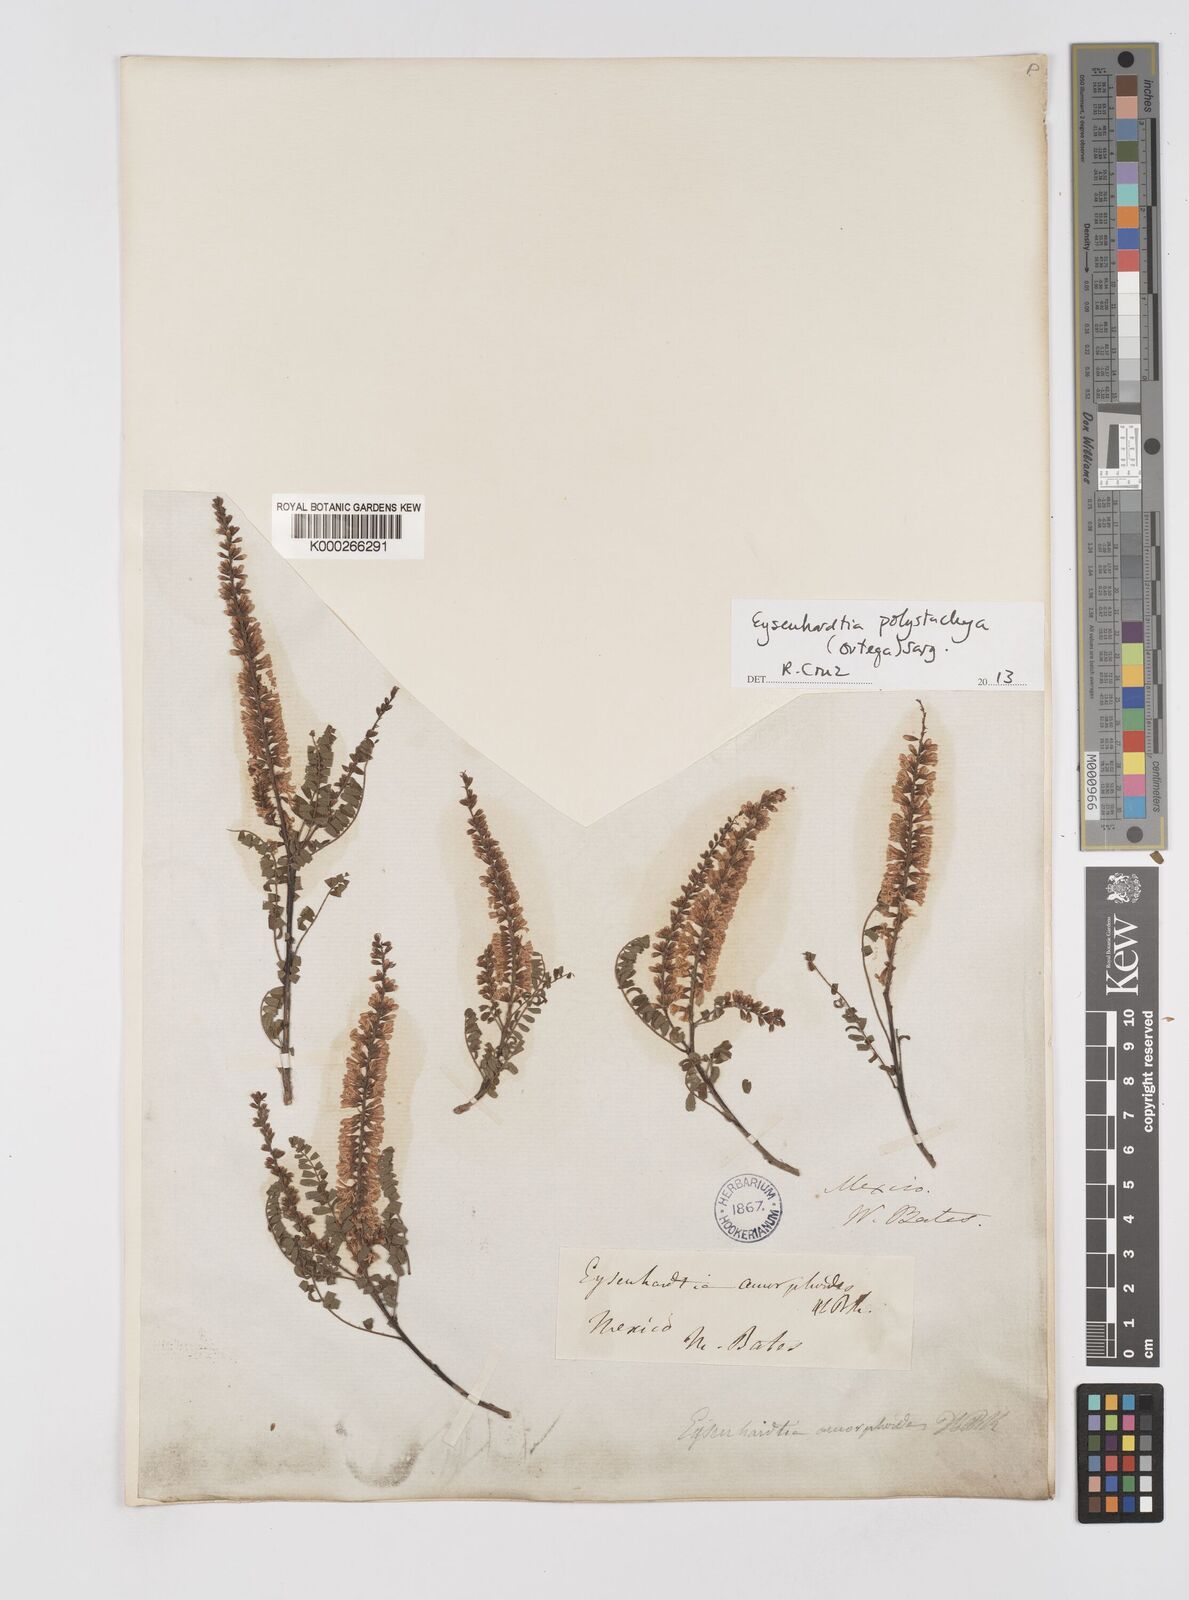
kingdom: Plantae
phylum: Tracheophyta
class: Magnoliopsida
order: Fabales
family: Fabaceae
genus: Eysenhardtia
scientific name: Eysenhardtia polystachya
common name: Kidneywood
